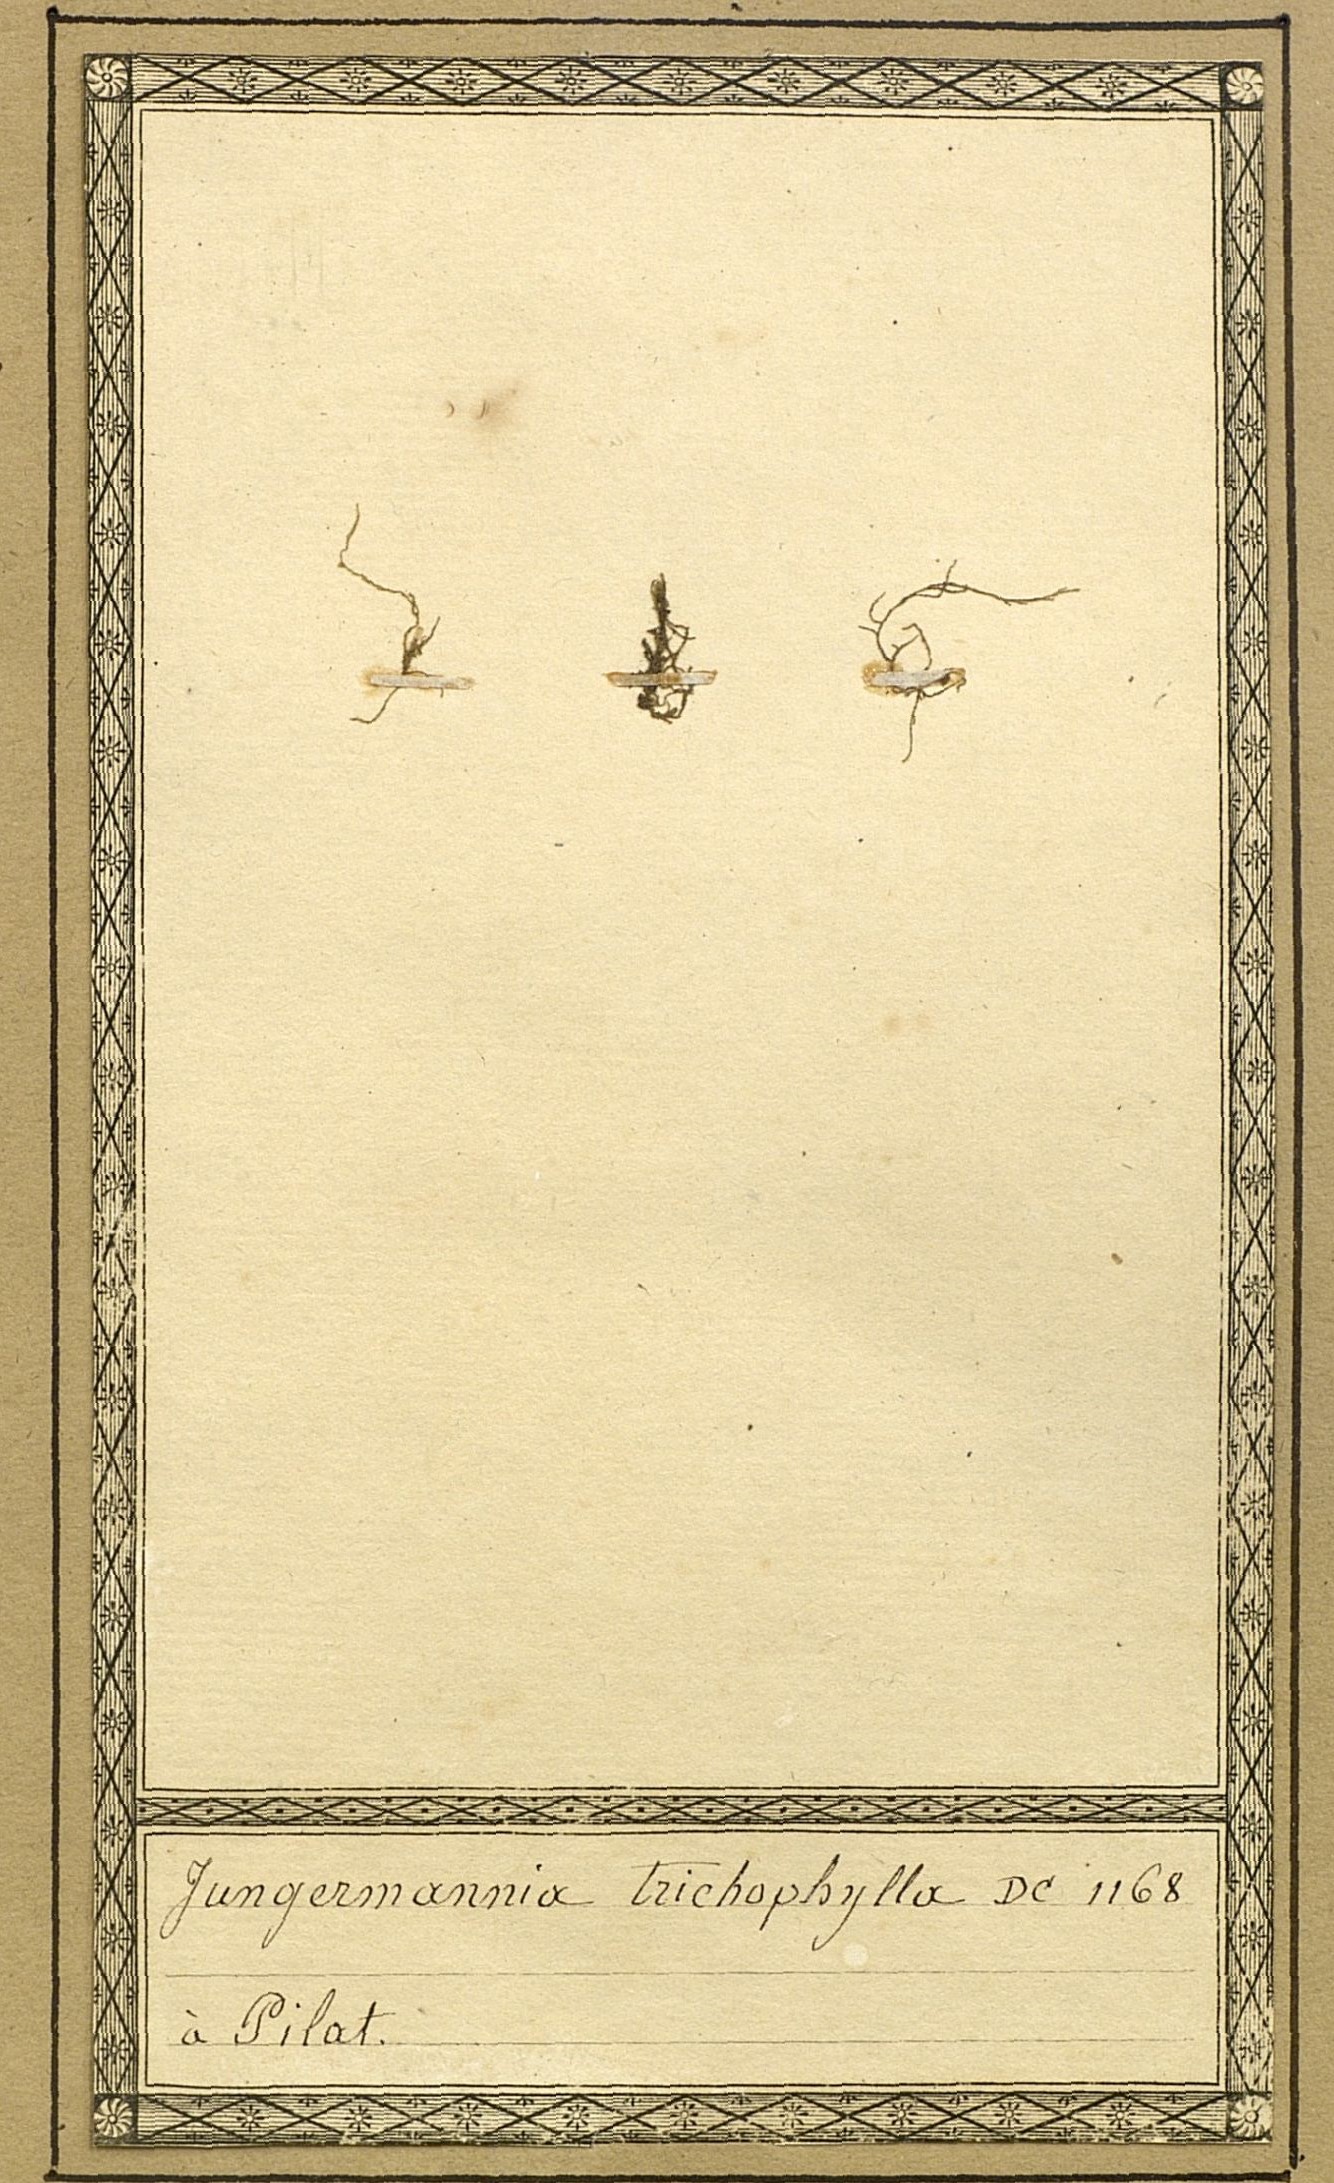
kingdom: Plantae
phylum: Marchantiophyta
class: Jungermanniopsida
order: Jungermanniales
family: Blepharostomataceae
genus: Blepharostoma
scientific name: Blepharostoma trichophyllum
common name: Hairy threadwort
